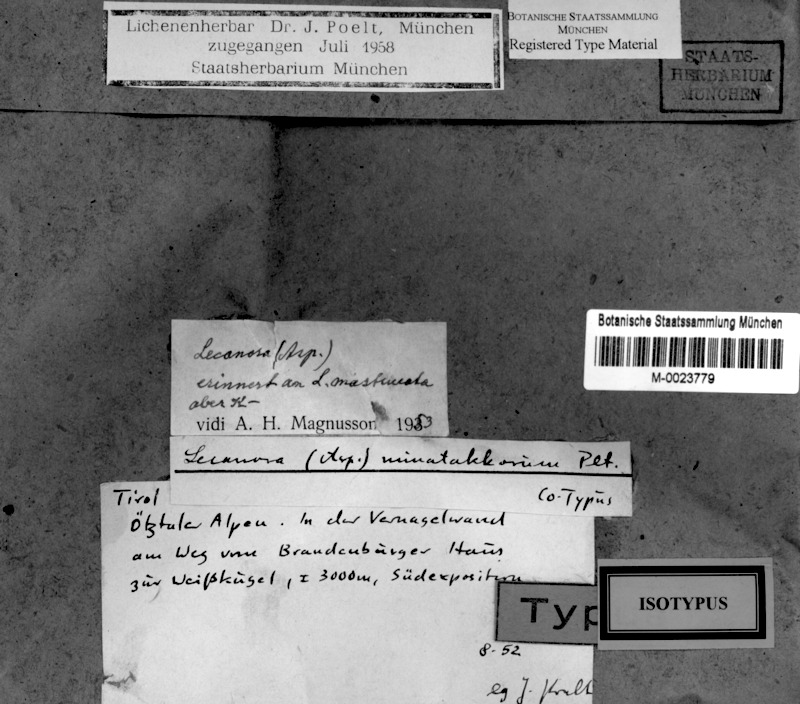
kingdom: Fungi
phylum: Ascomycota
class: Lecanoromycetes
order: Pertusariales
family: Pertusariaceae
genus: Sagedia
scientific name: Sagedia nunatakkorum
